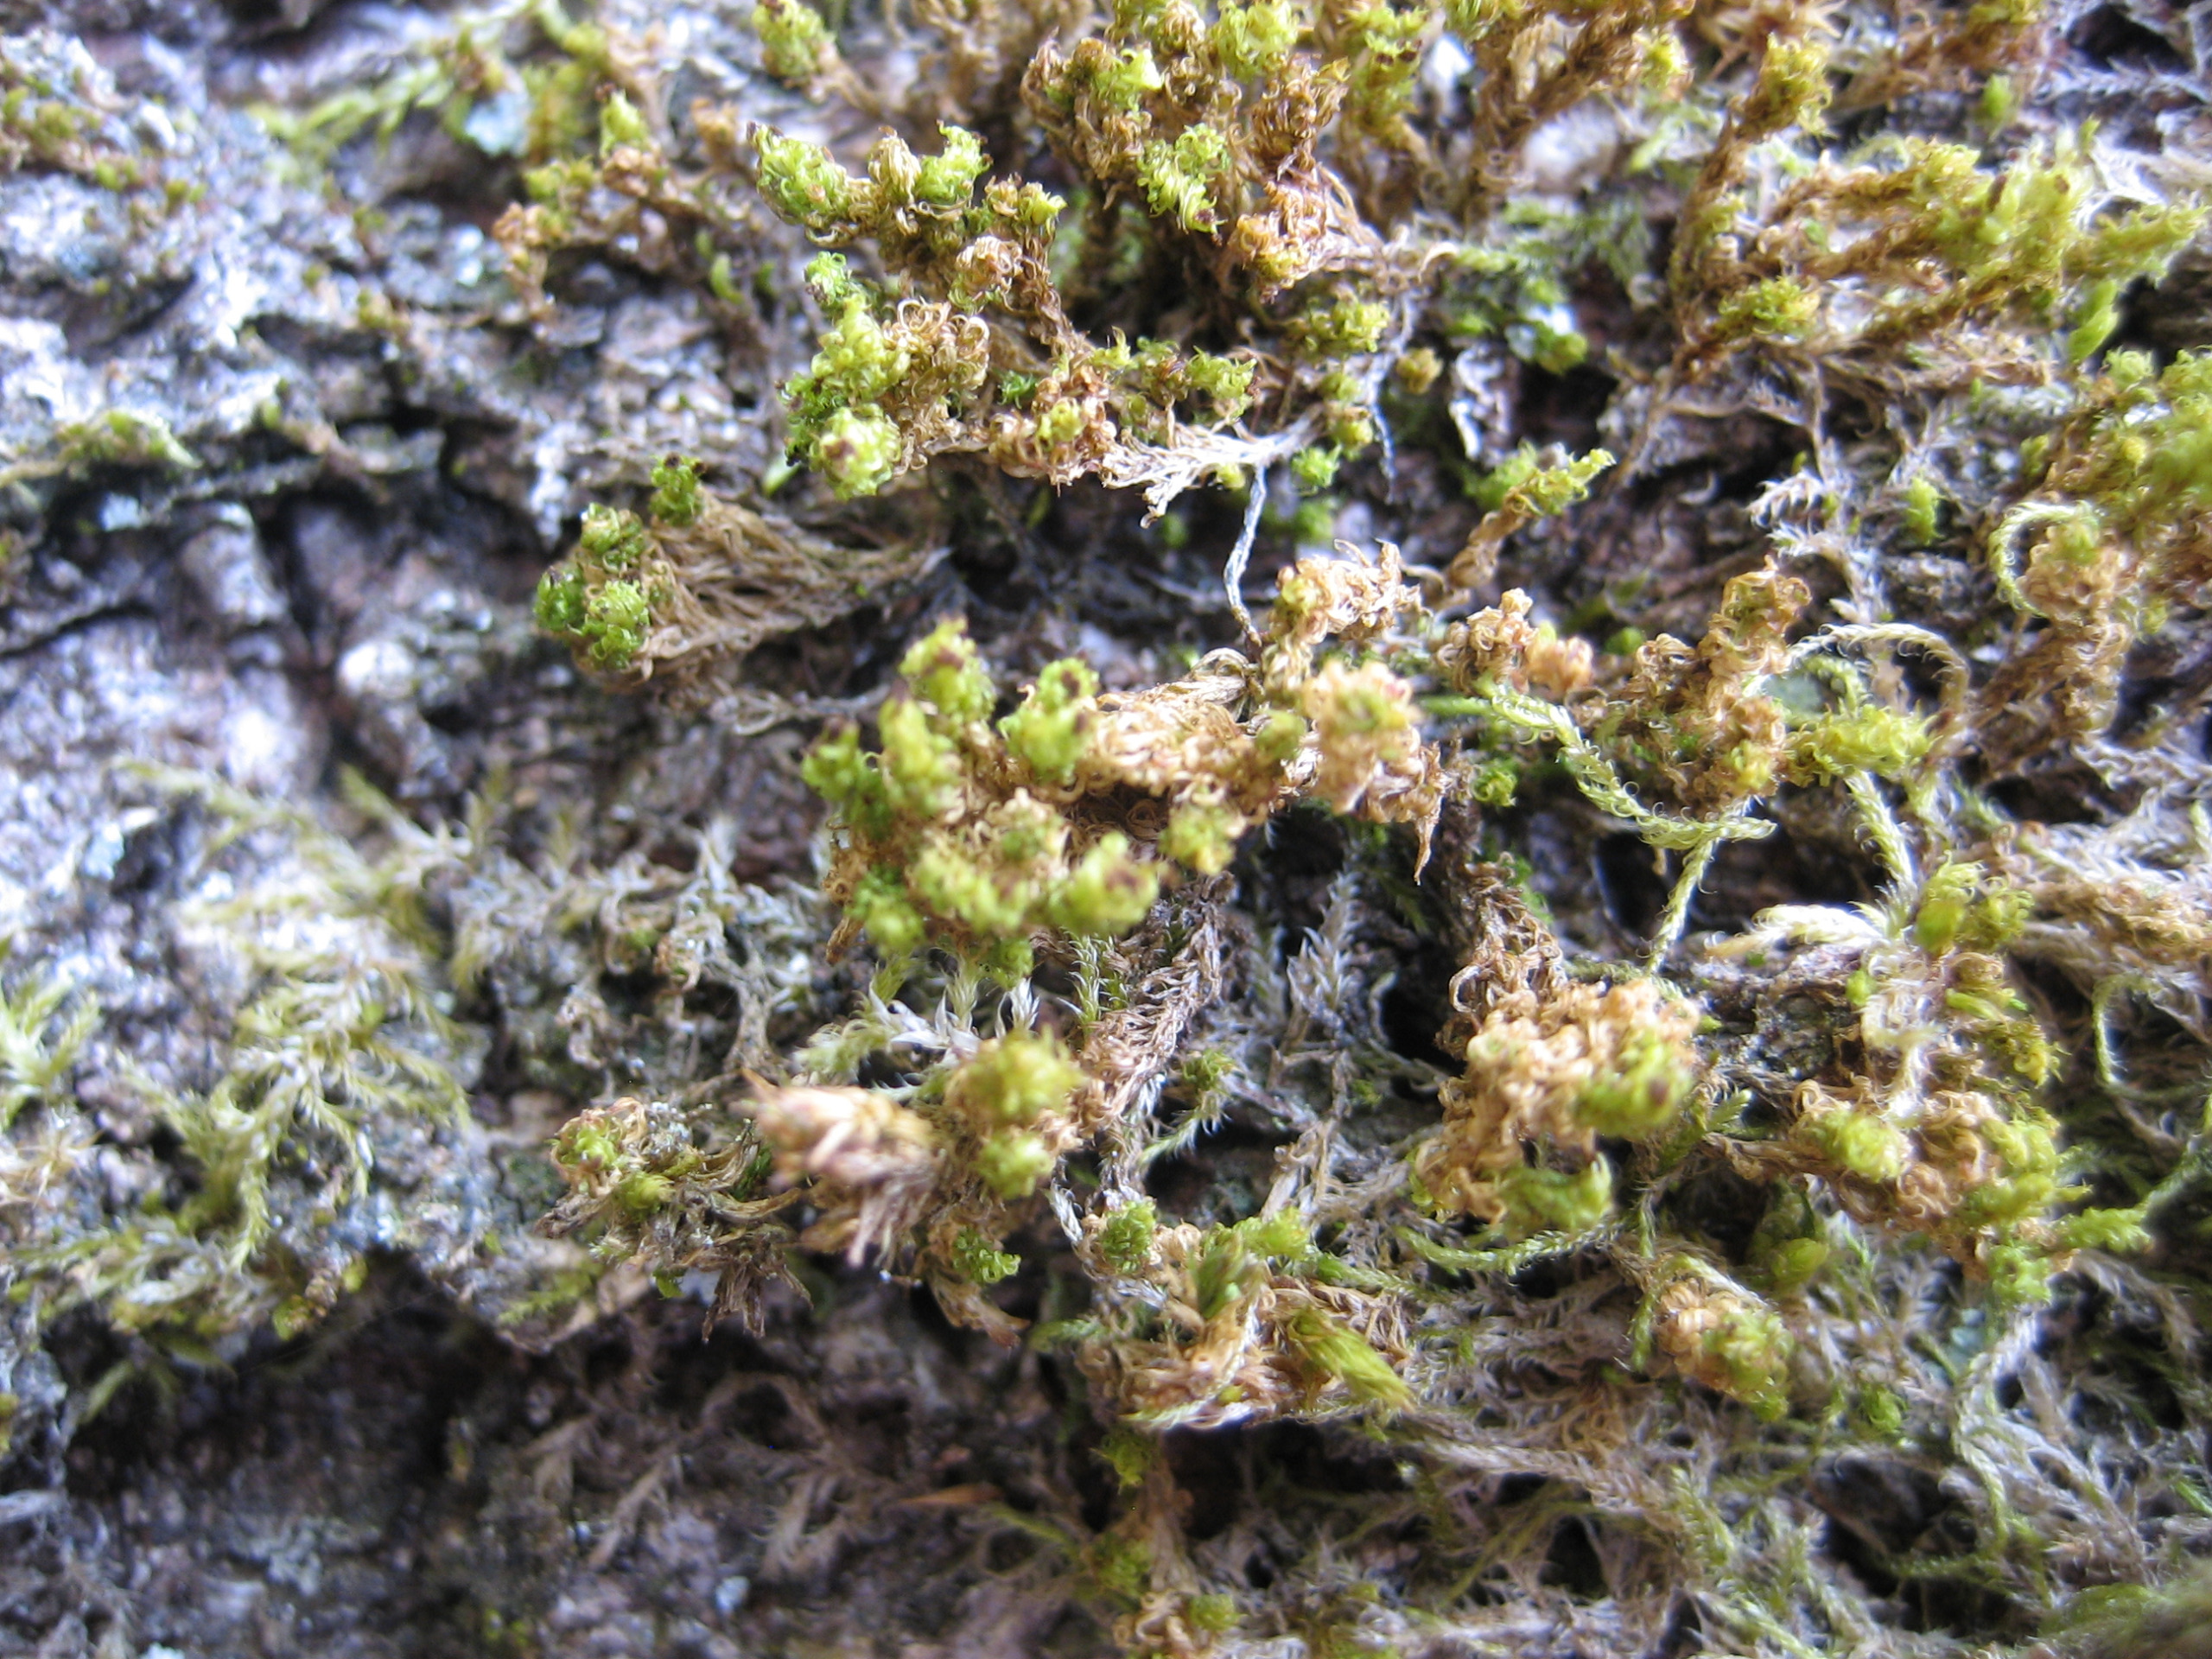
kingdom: Plantae
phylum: Bryophyta
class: Bryopsida
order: Orthotrichales
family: Orthotrichaceae
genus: Plenogemma
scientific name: Plenogemma phyllantha
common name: Stor låddenhætte
